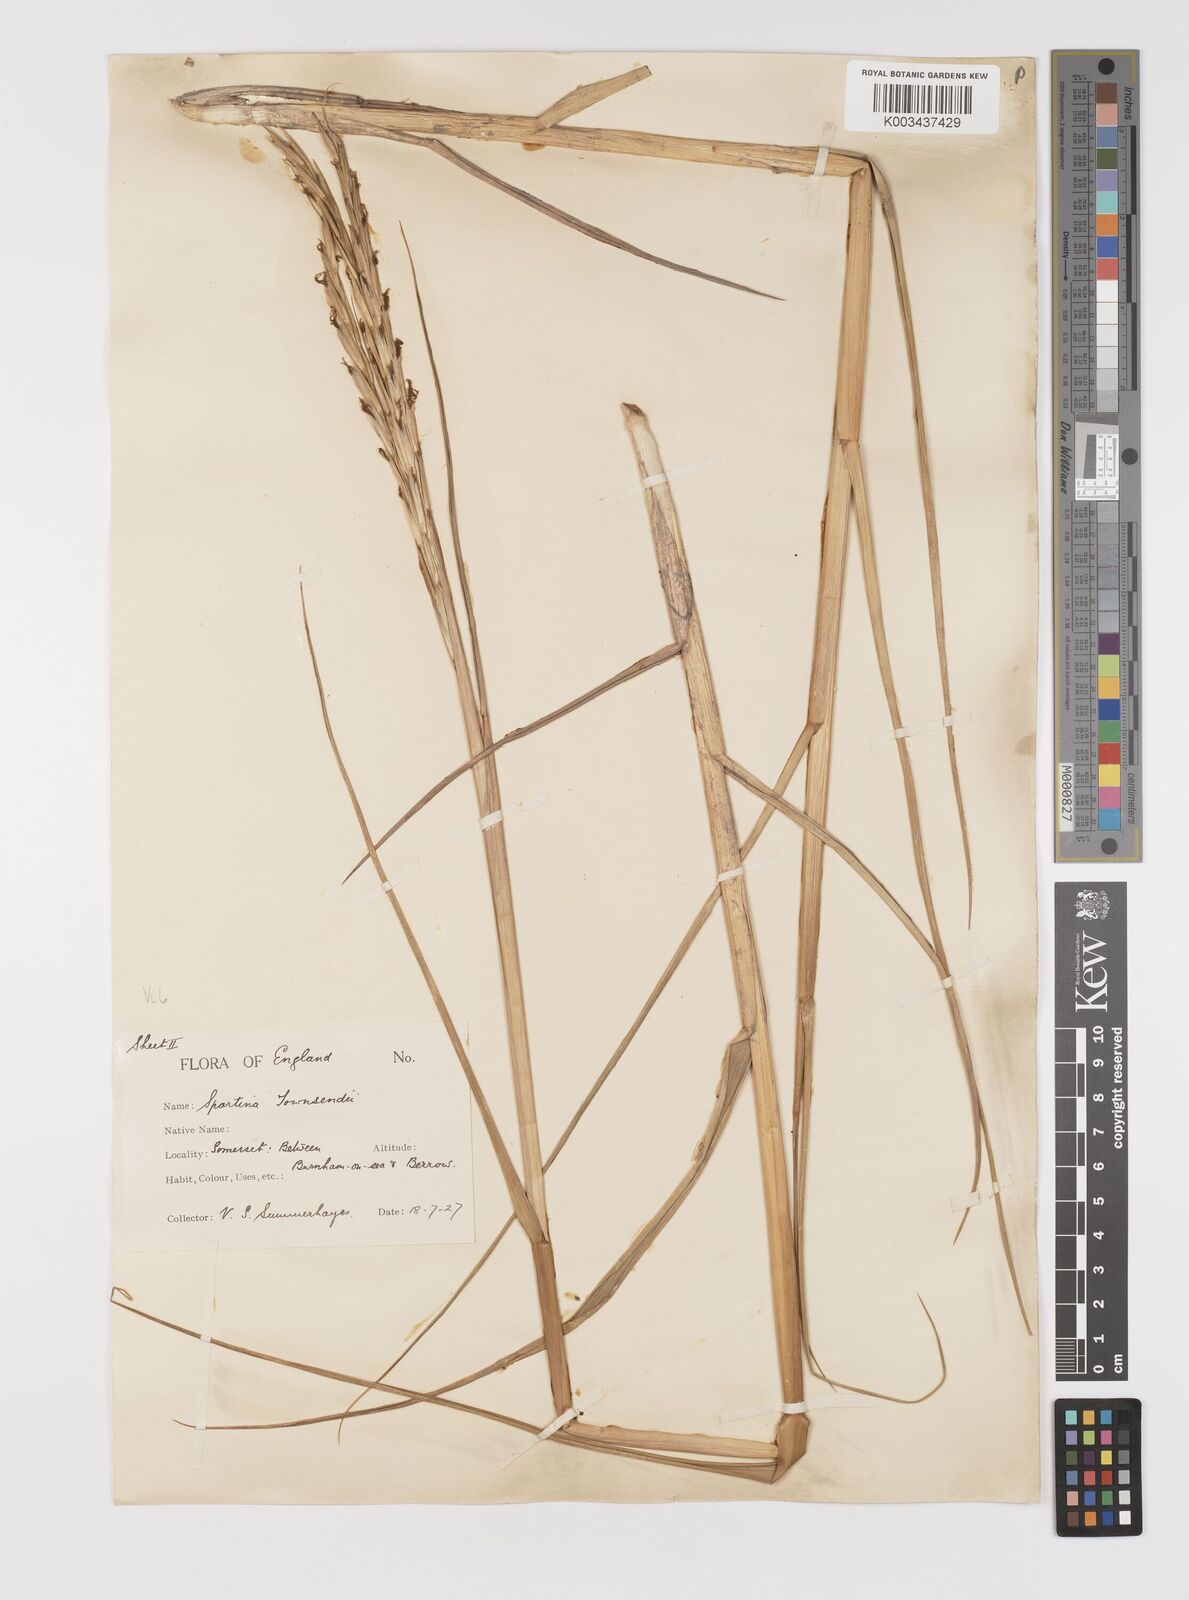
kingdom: Plantae
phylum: Tracheophyta
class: Liliopsida
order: Poales
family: Poaceae
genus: Sporobolus
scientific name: Sporobolus anglicus
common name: English cordgrass
